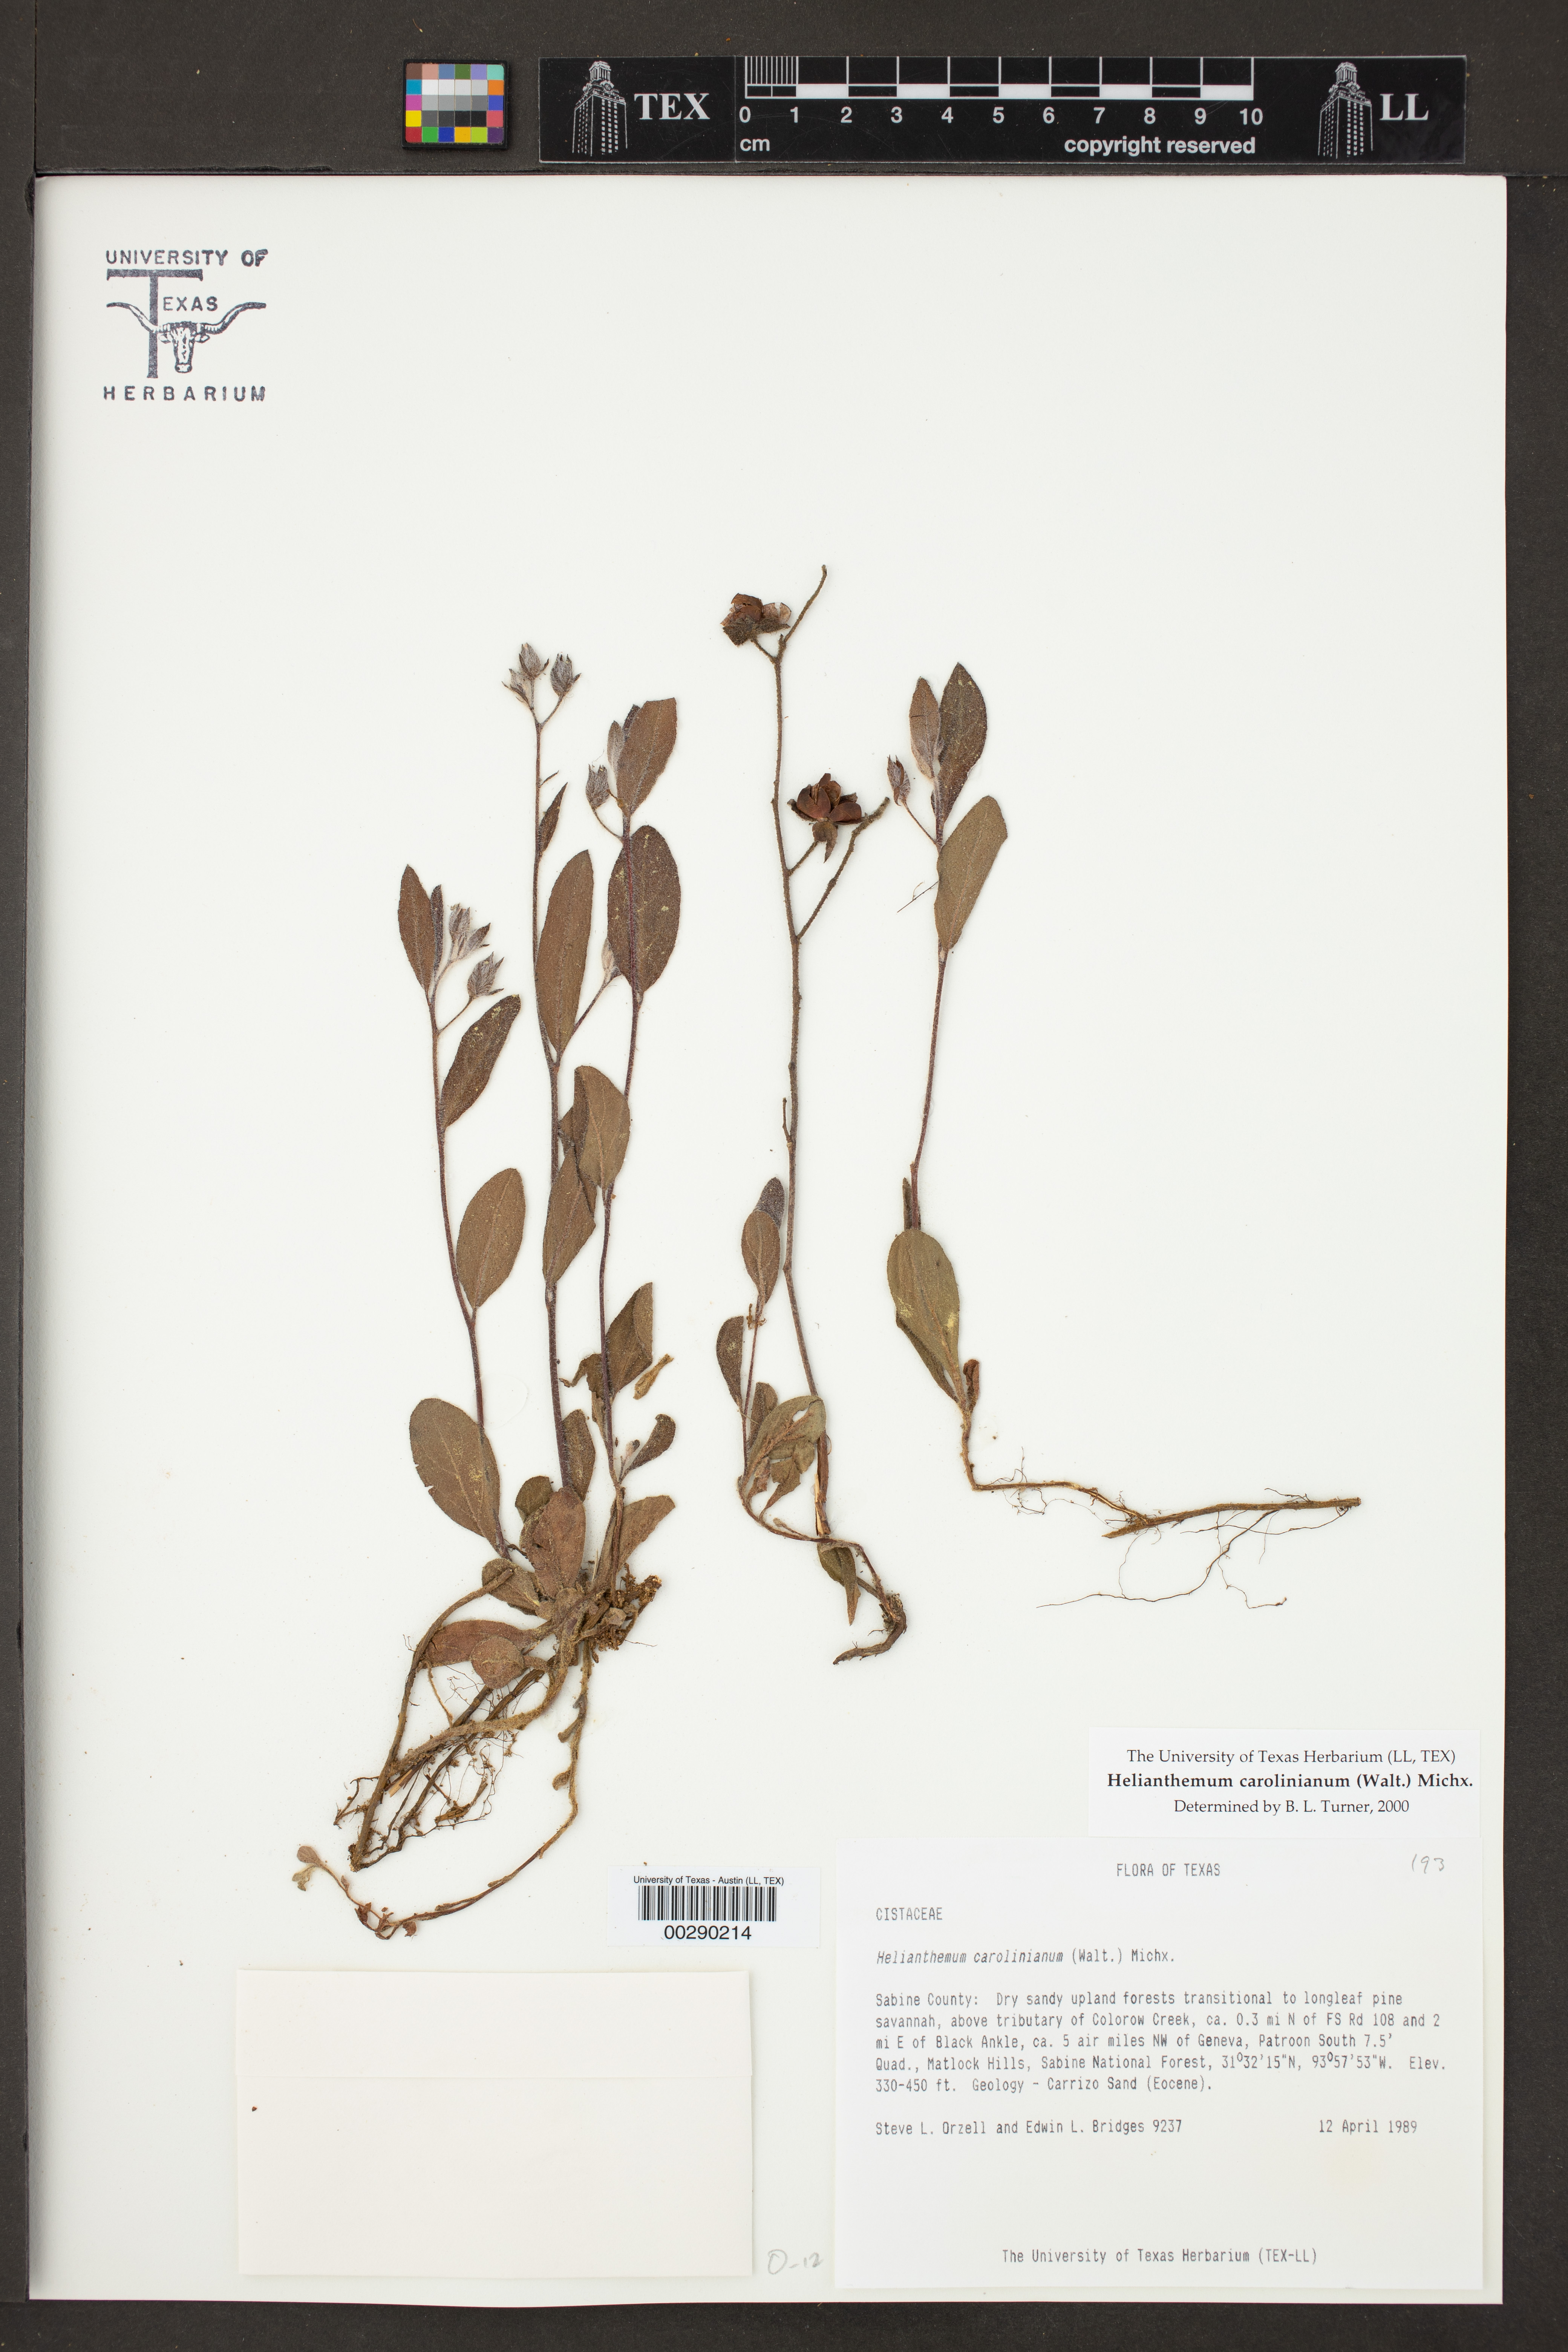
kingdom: Plantae
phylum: Tracheophyta
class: Magnoliopsida
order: Malvales
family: Cistaceae
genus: Crocanthemum
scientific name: Crocanthemum carolinianum
